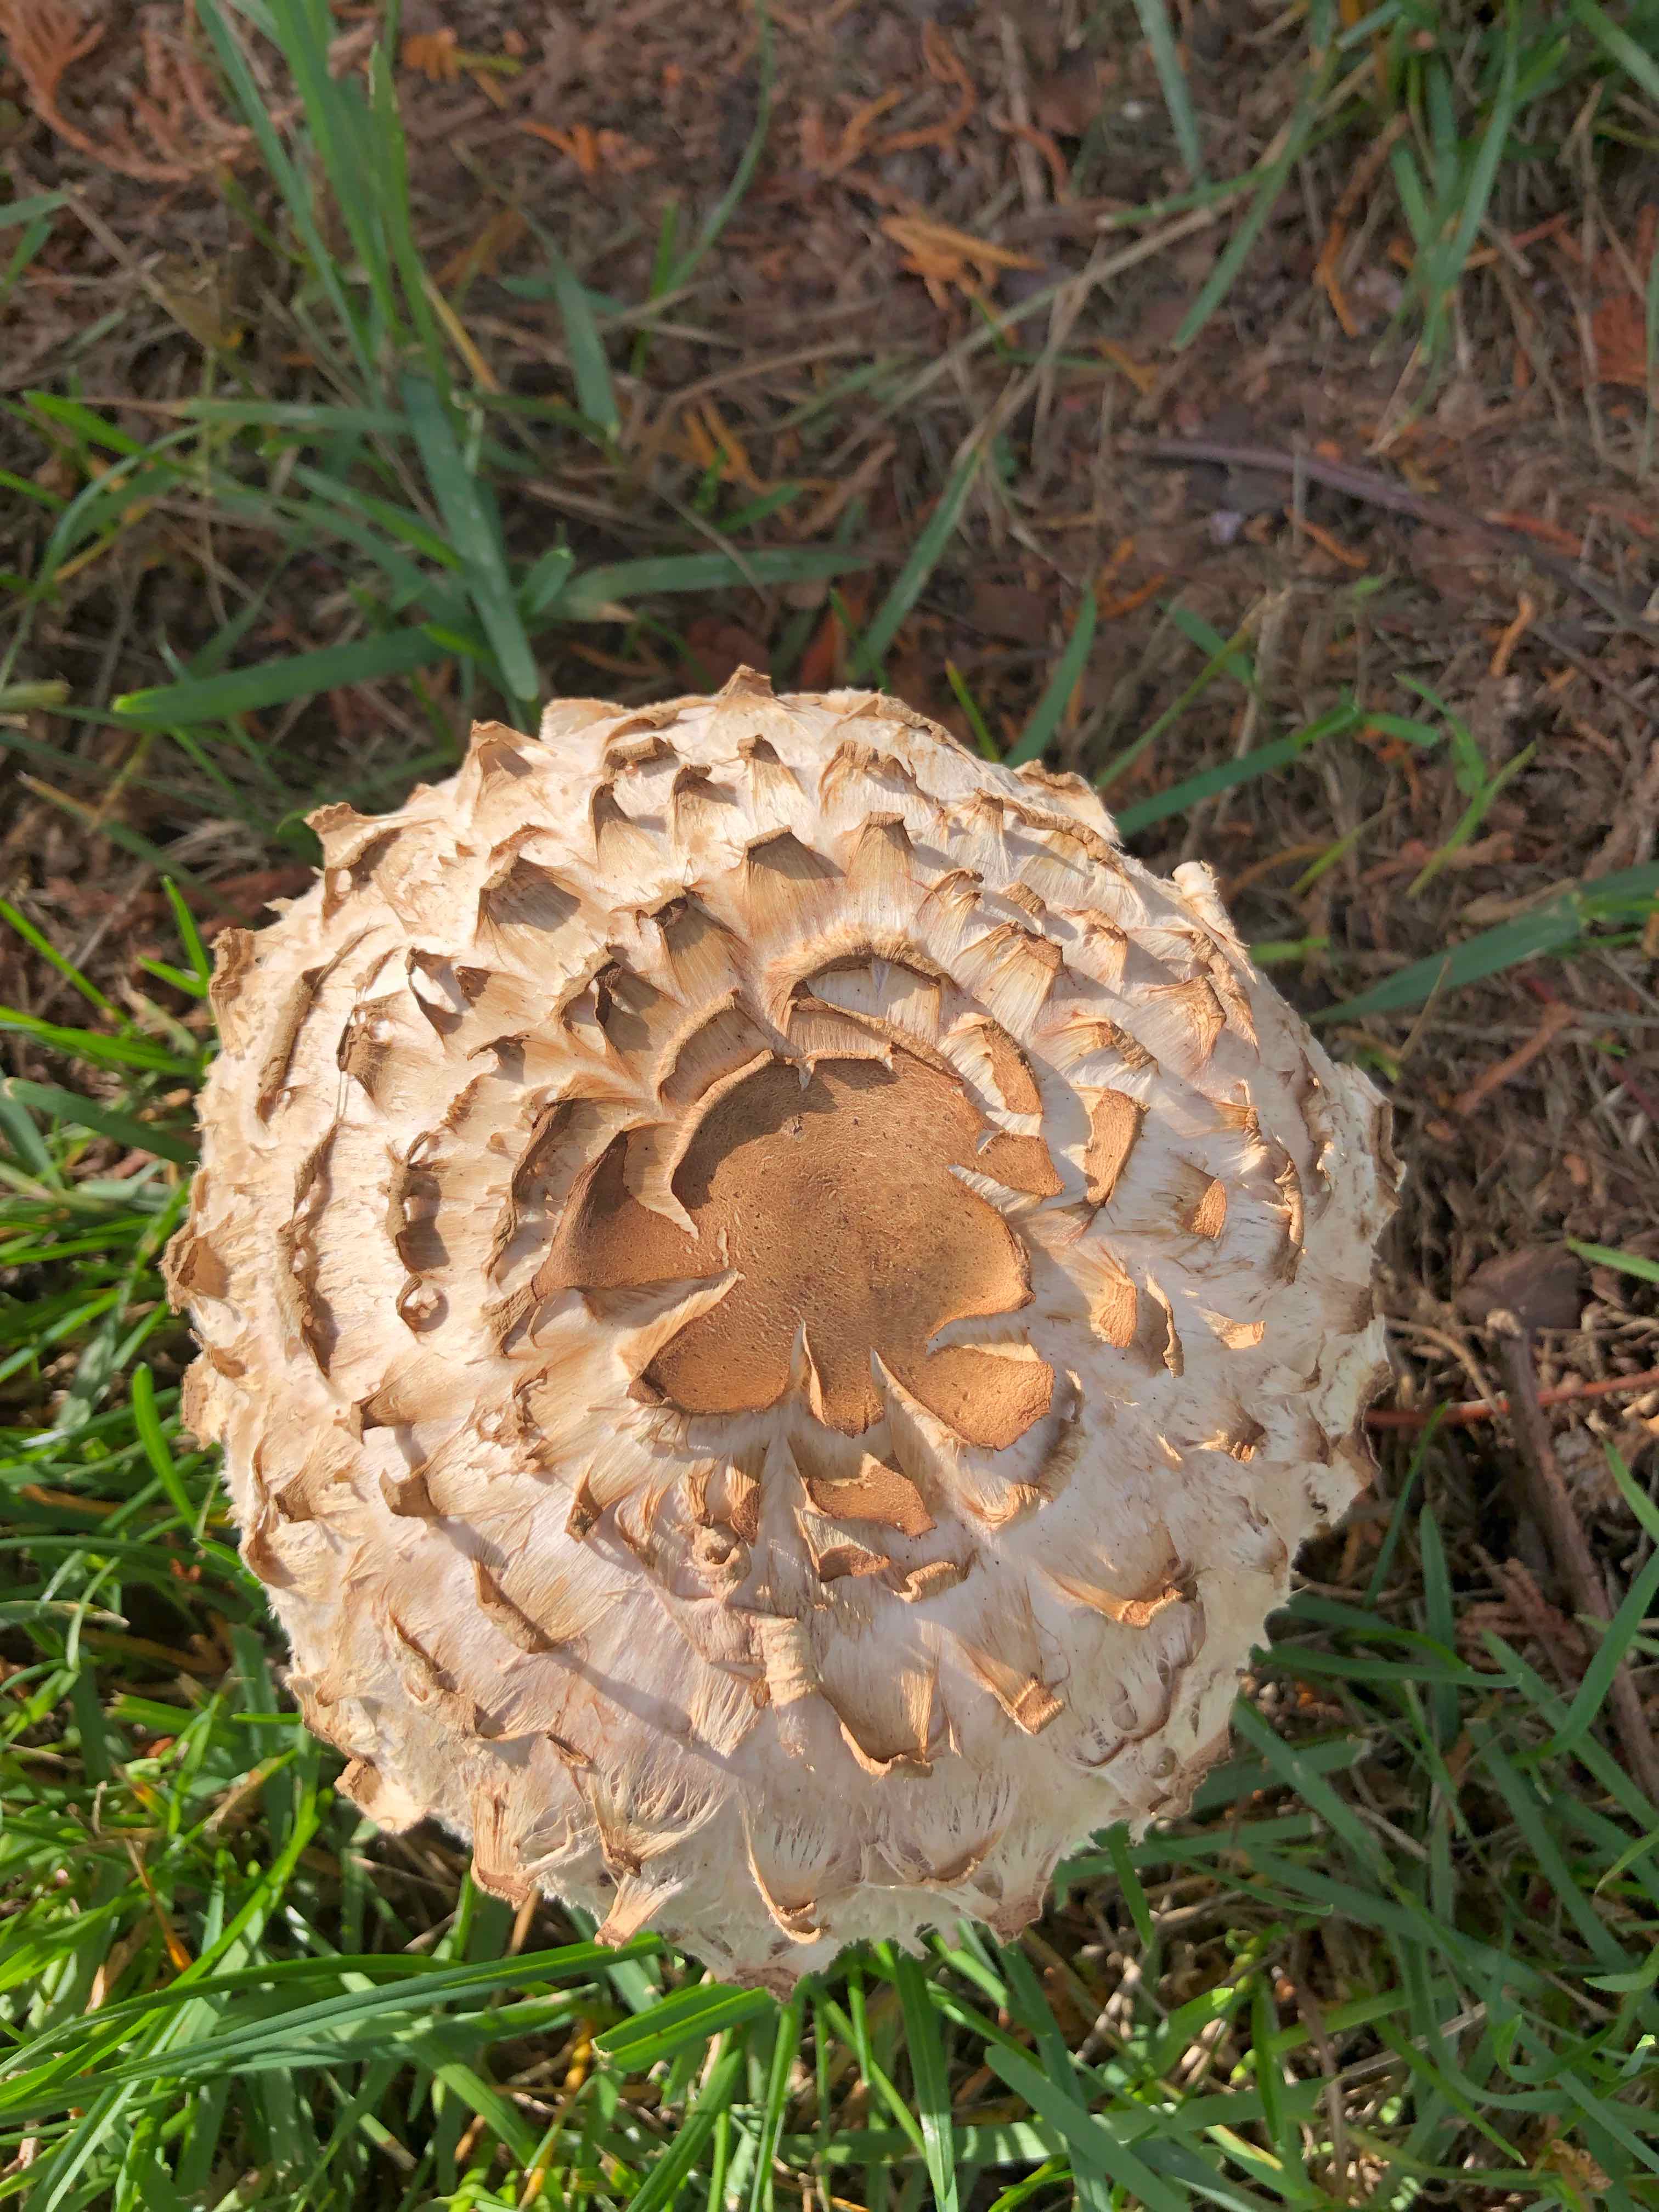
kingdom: Fungi
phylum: Basidiomycota
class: Agaricomycetes
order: Agaricales
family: Agaricaceae
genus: Chlorophyllum
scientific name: Chlorophyllum
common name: rabarberhat
